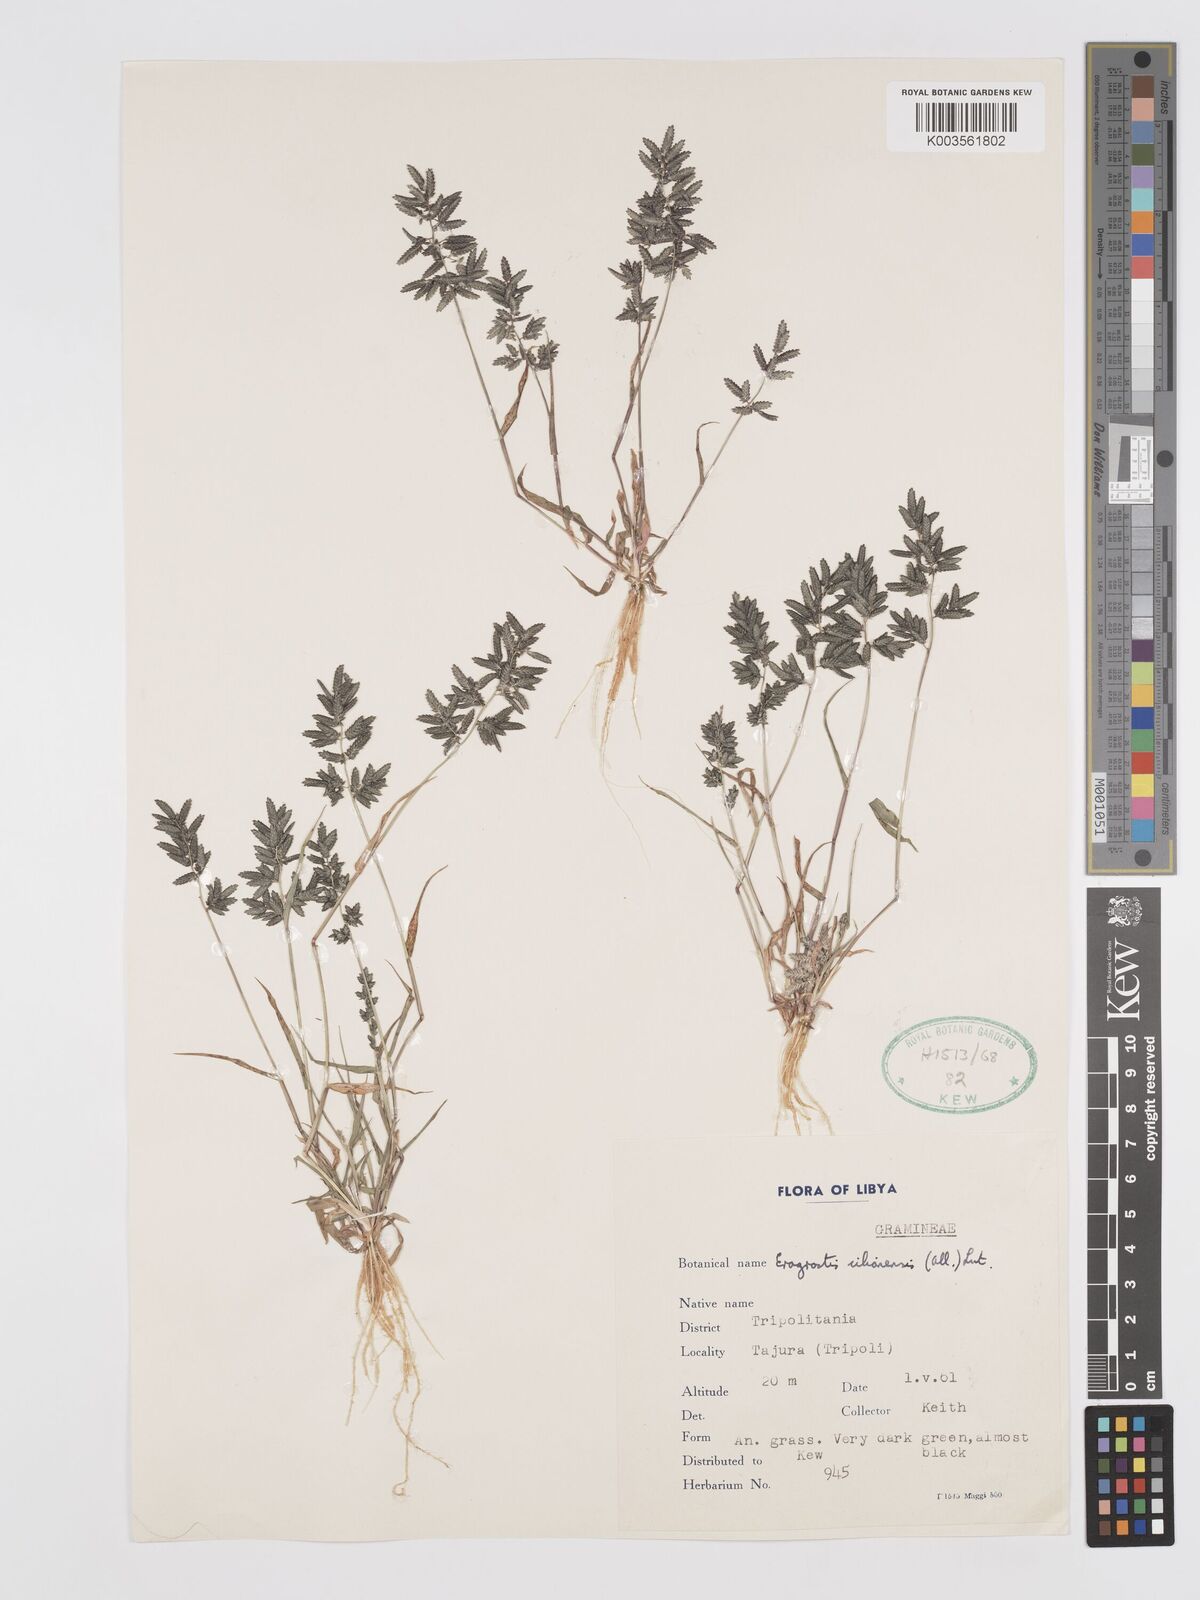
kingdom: Plantae
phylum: Tracheophyta
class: Liliopsida
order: Poales
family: Poaceae
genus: Eragrostis
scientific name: Eragrostis cilianensis
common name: Stinkgrass
